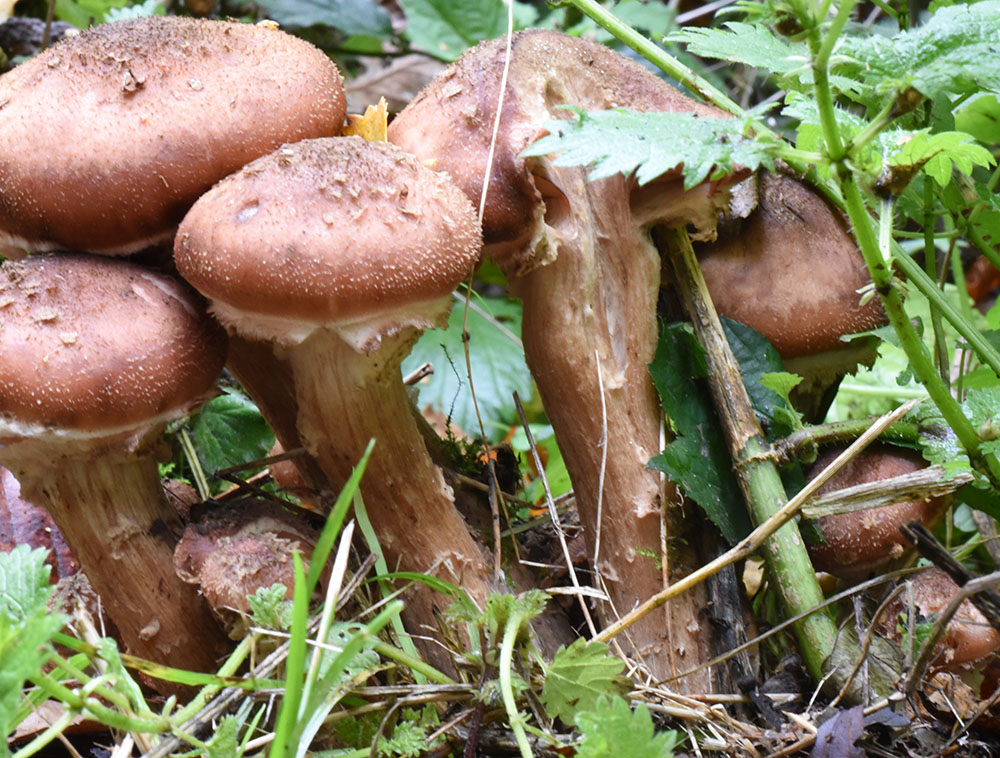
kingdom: Fungi
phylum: Basidiomycota
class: Agaricomycetes
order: Agaricales
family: Physalacriaceae
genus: Armillaria
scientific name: Armillaria ostoyae
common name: Dark honey fungus
